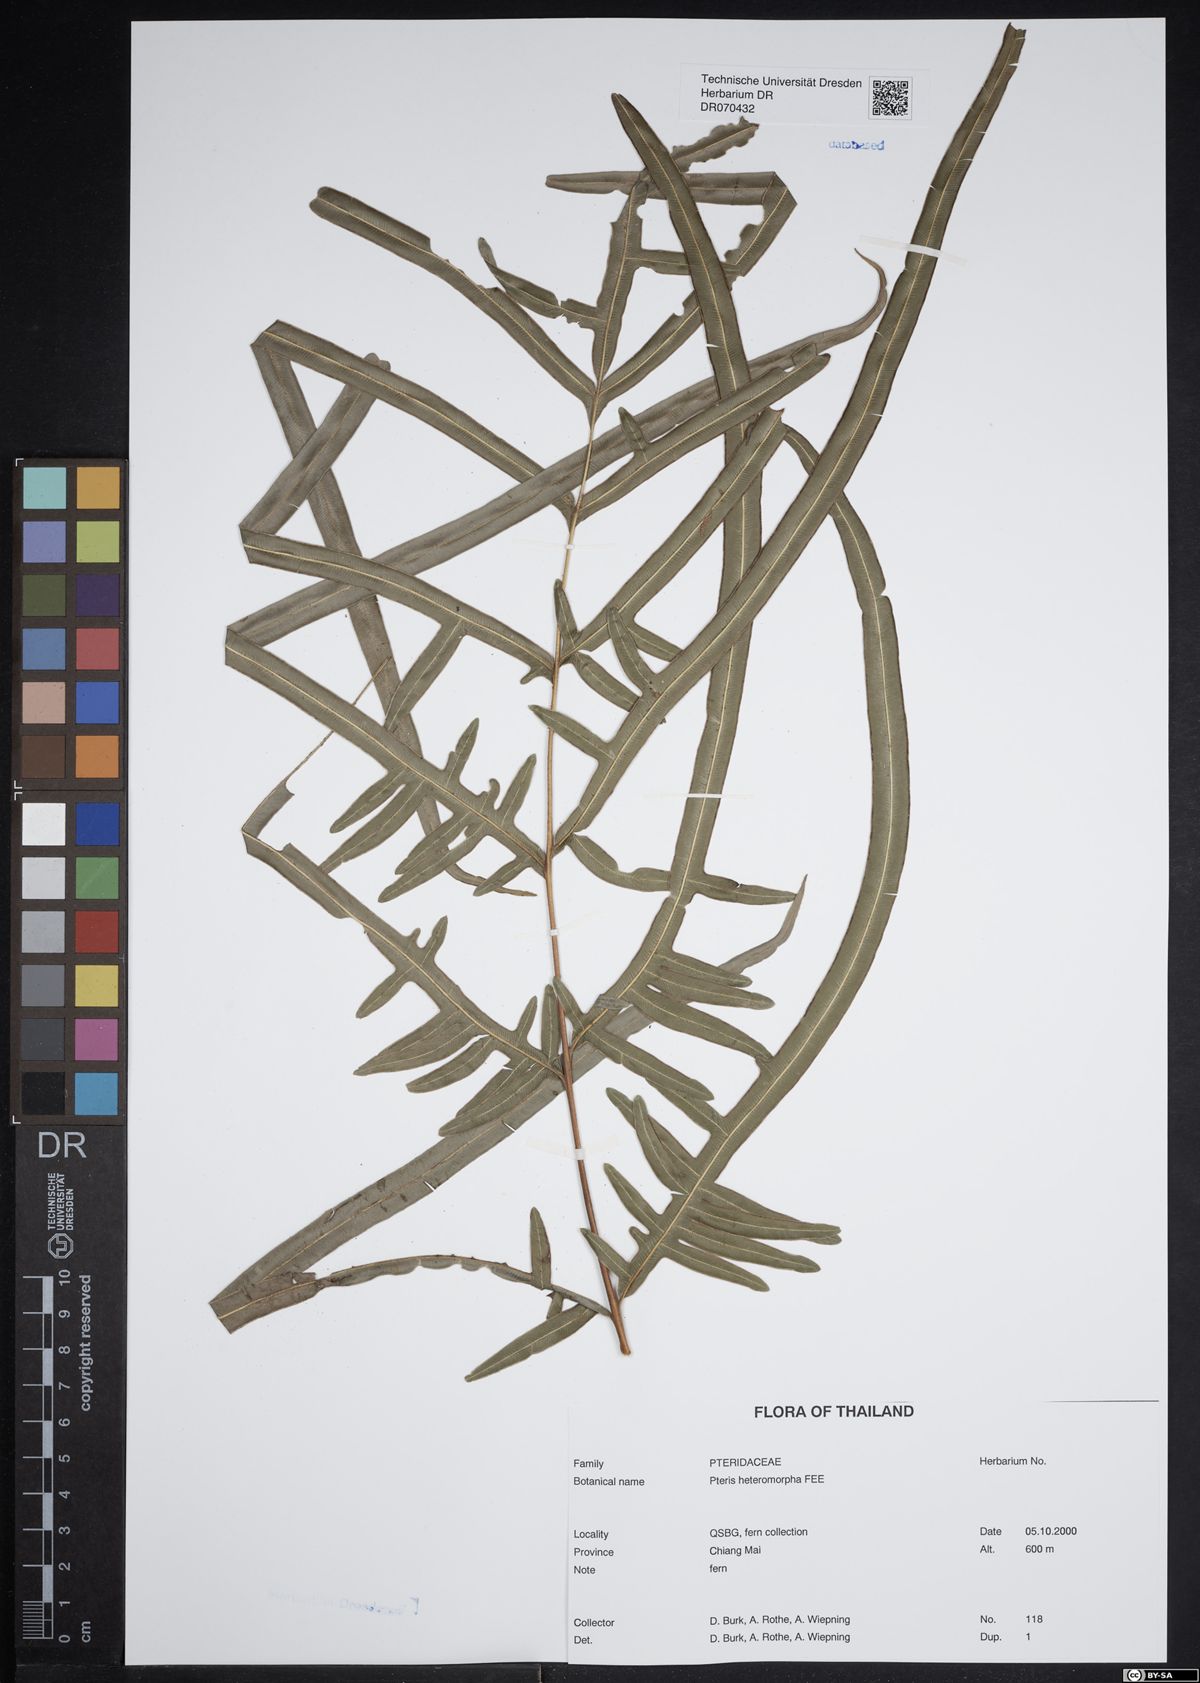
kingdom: Plantae
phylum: Tracheophyta
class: Polypodiopsida
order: Polypodiales
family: Pteridaceae
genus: Pteris
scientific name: Pteris heteromorpha
